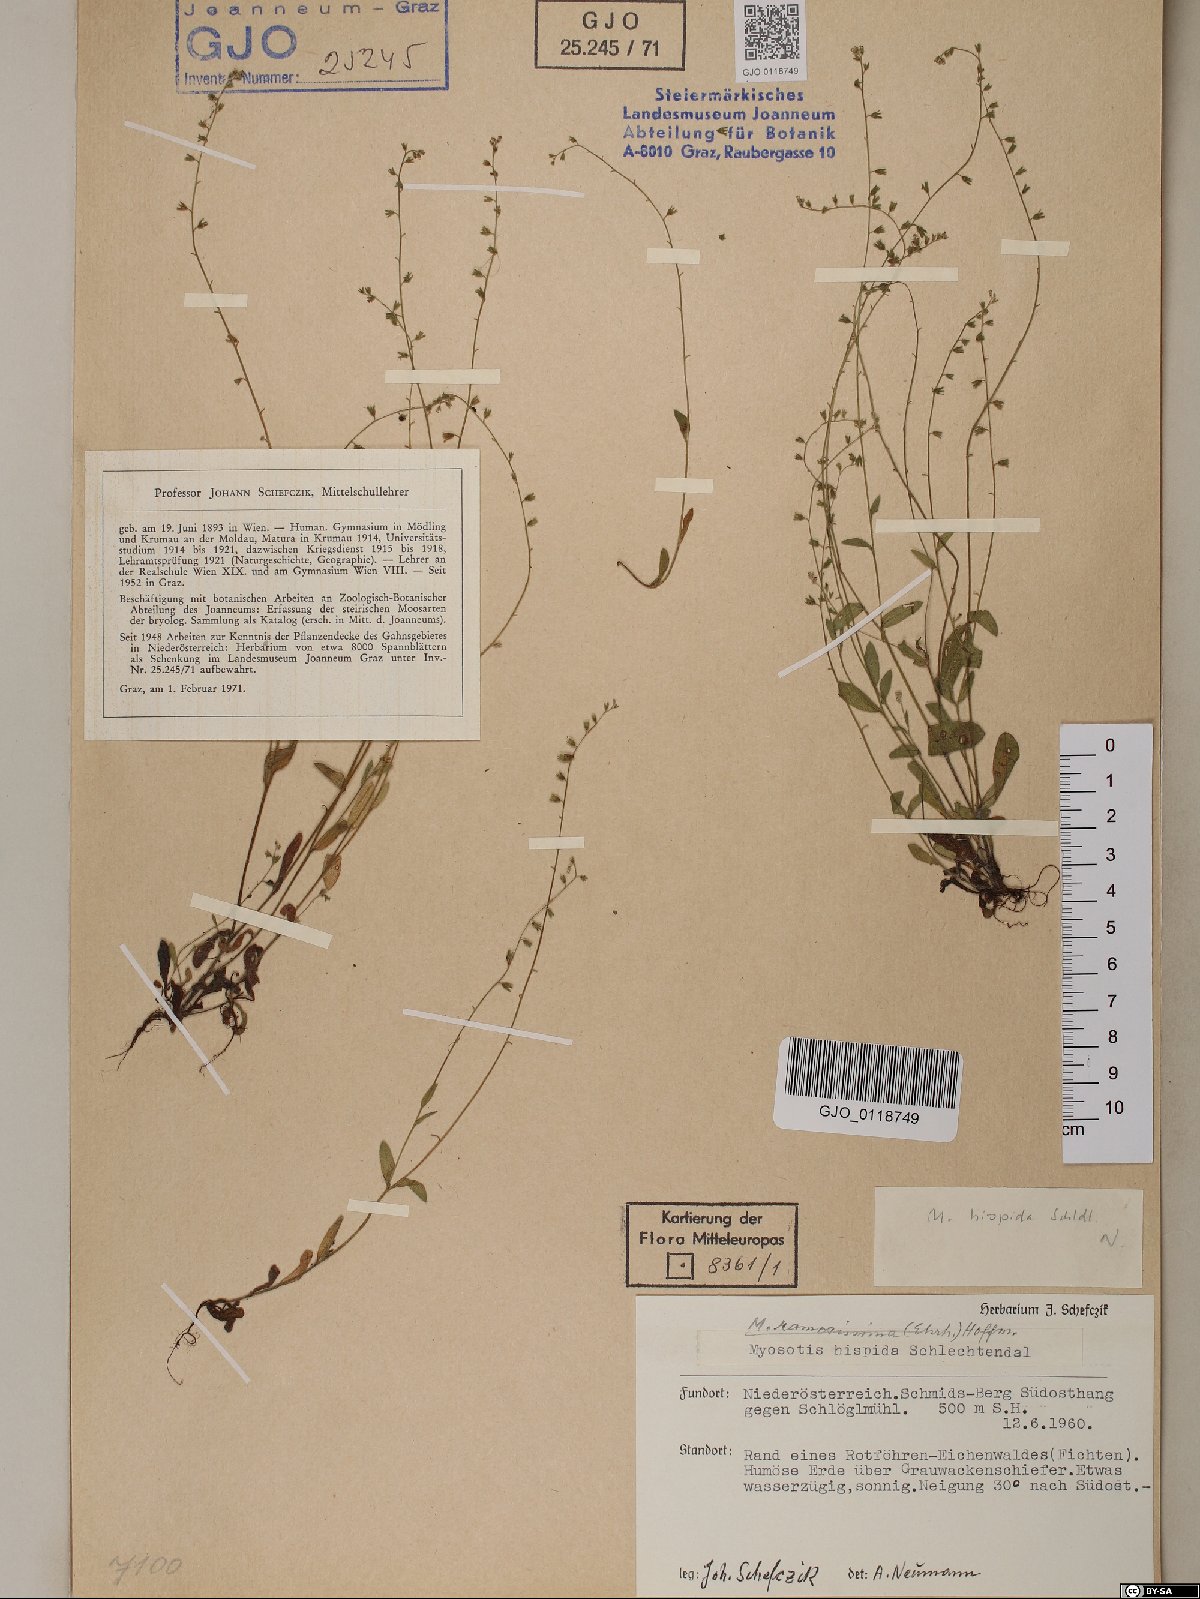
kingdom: Plantae
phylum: Tracheophyta
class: Magnoliopsida
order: Boraginales
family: Boraginaceae
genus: Myosotis
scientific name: Myosotis ramosissima
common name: Early forget-me-not
